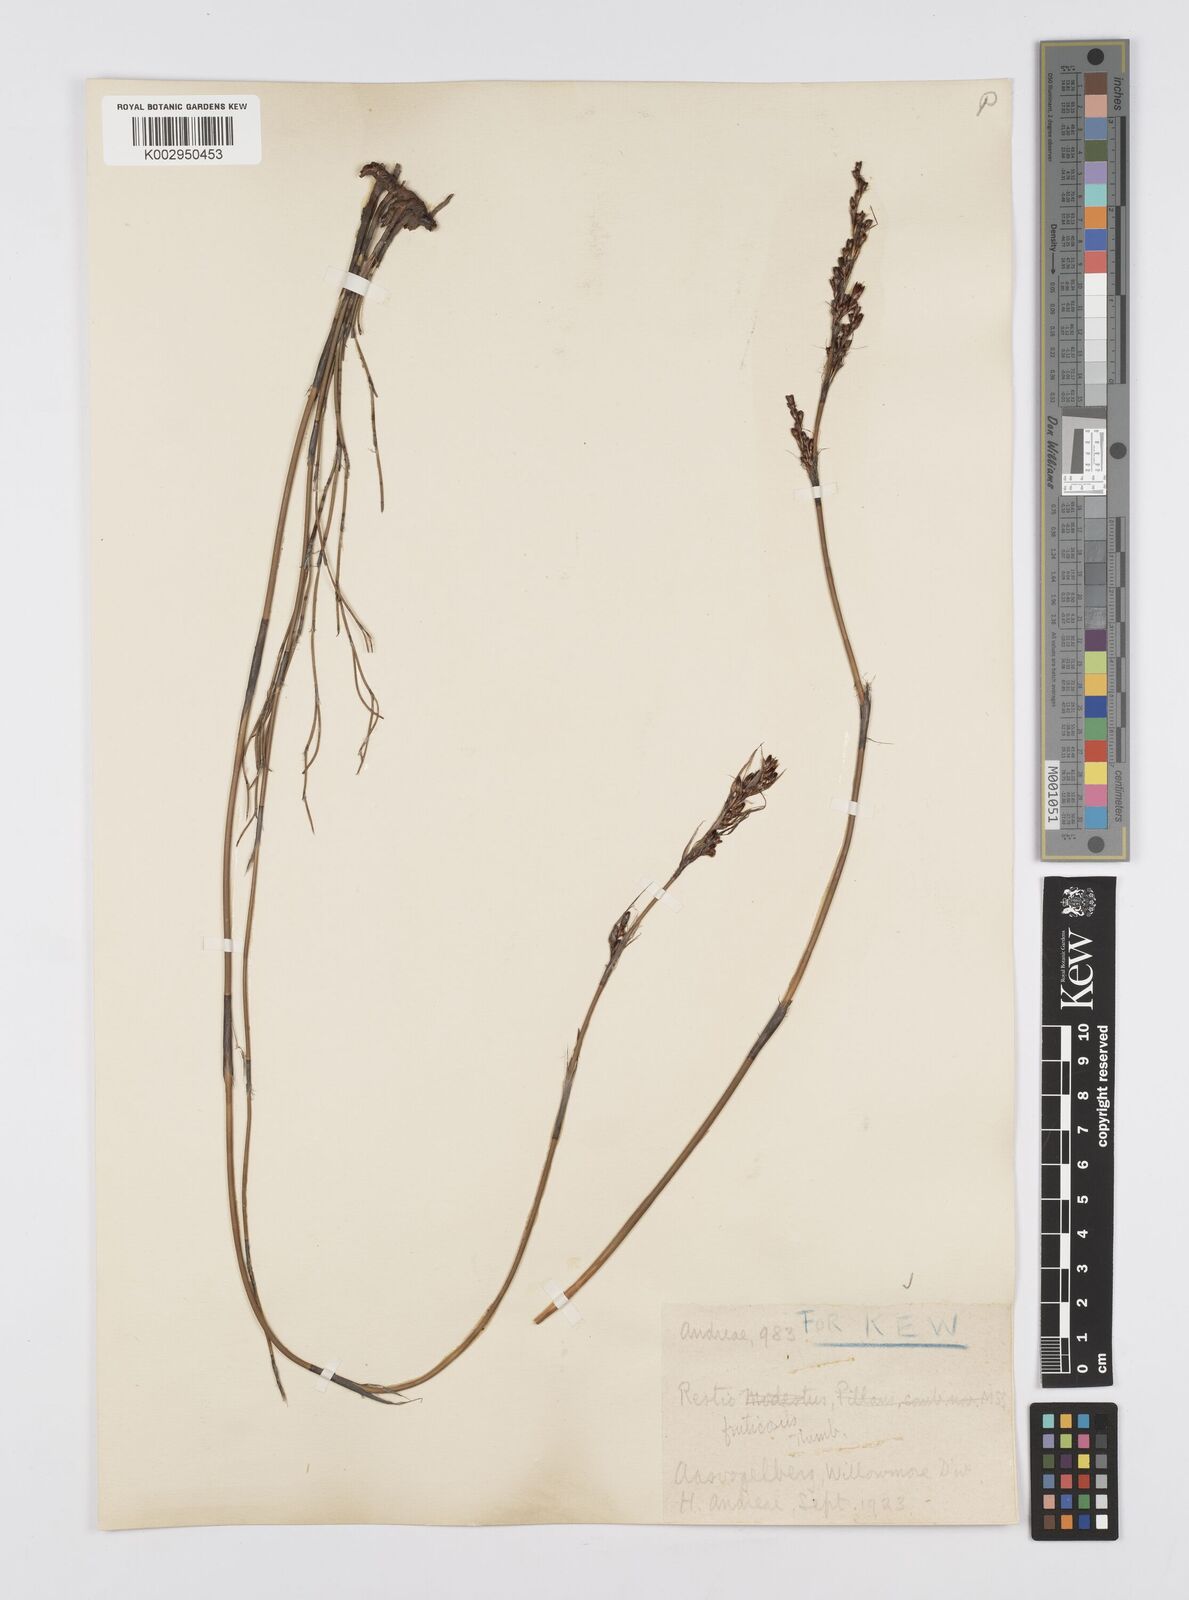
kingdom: Plantae
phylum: Tracheophyta
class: Liliopsida
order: Poales
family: Restionaceae
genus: Rhodocoma
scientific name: Rhodocoma fruticosa
